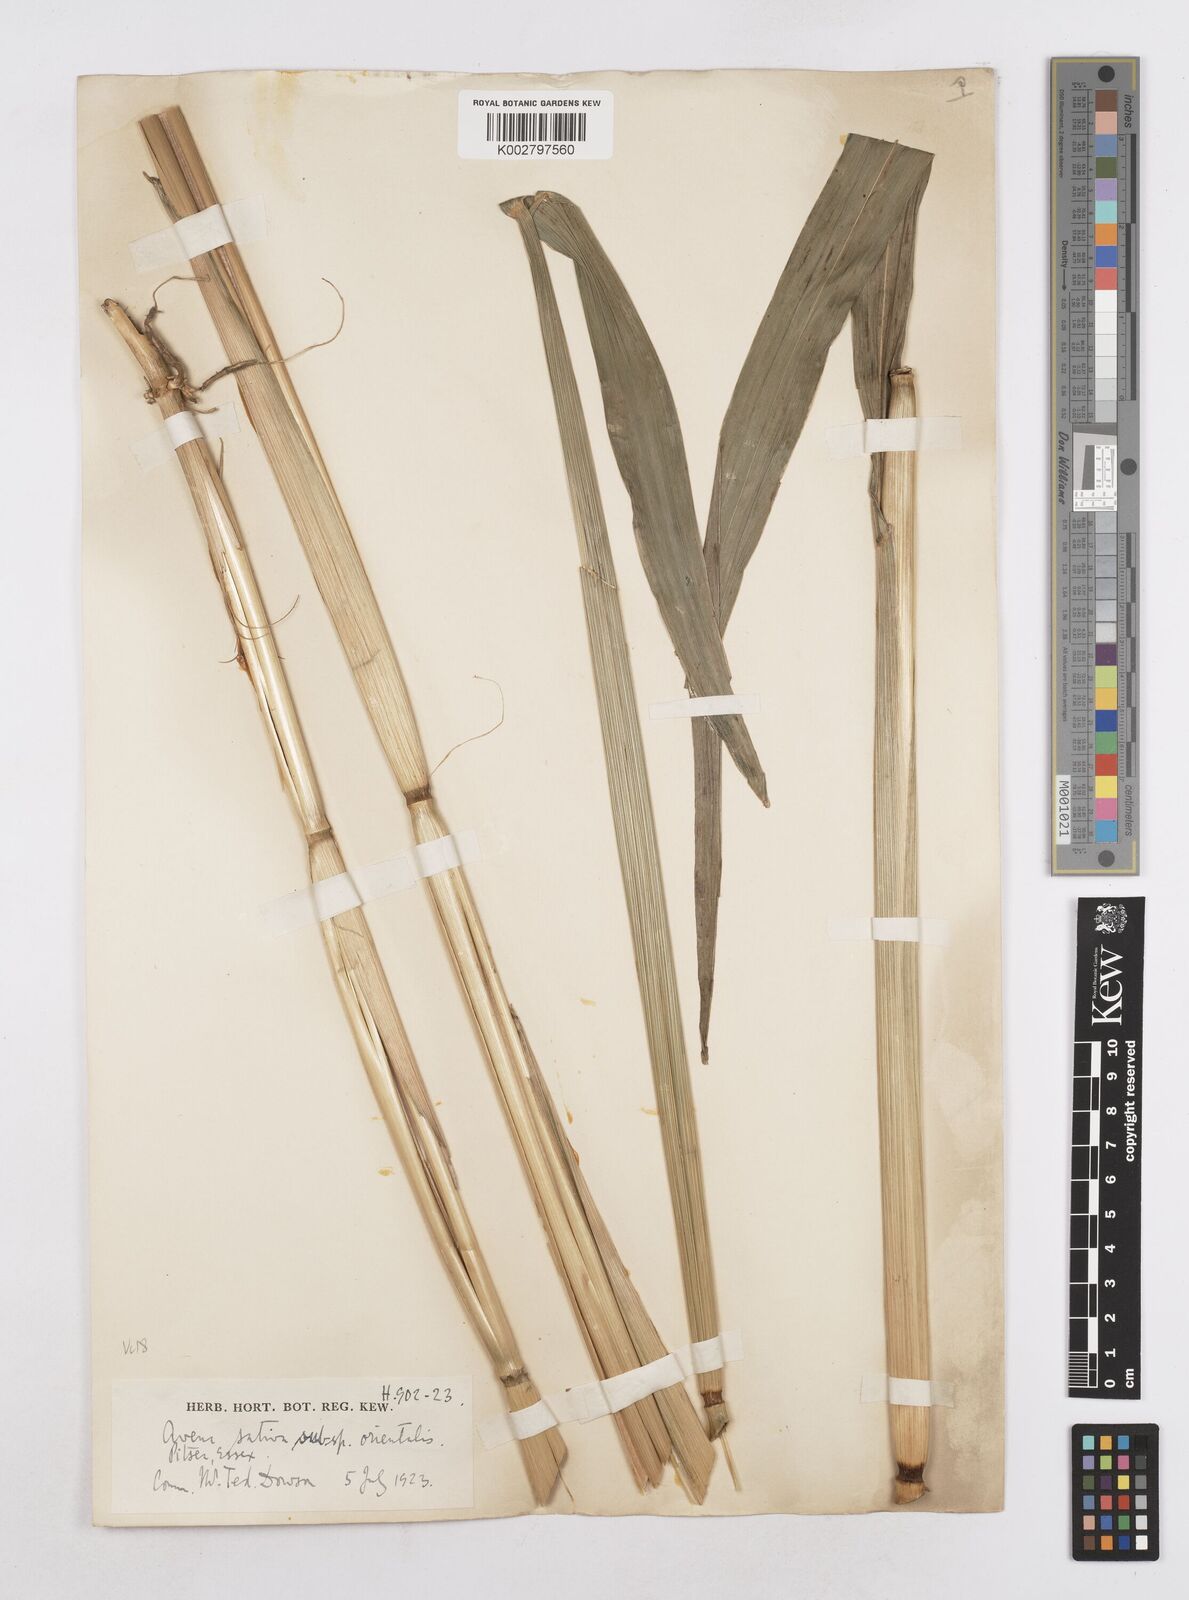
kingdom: Plantae
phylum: Tracheophyta
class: Liliopsida
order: Poales
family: Poaceae
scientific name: Poaceae
